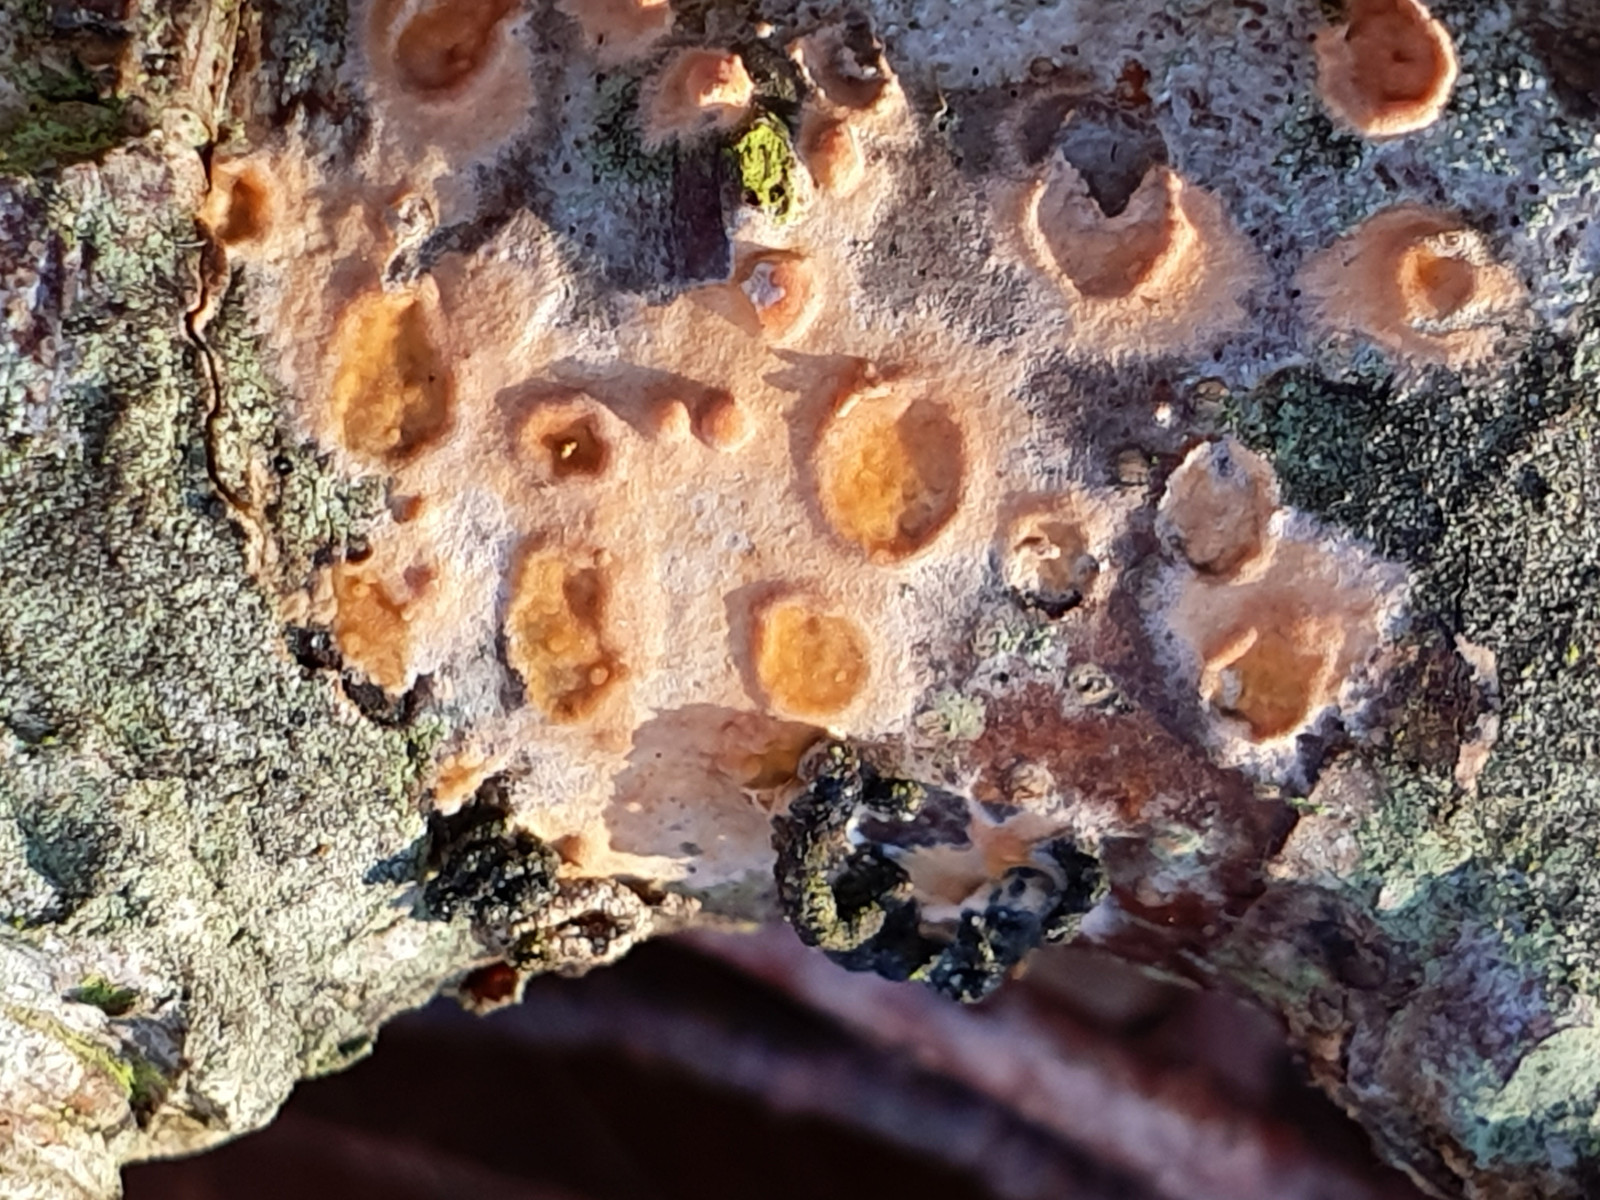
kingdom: Fungi
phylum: Basidiomycota
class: Agaricomycetes
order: Russulales
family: Peniophoraceae
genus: Peniophora
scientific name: Peniophora incarnata
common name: laksefarvet voksskind
